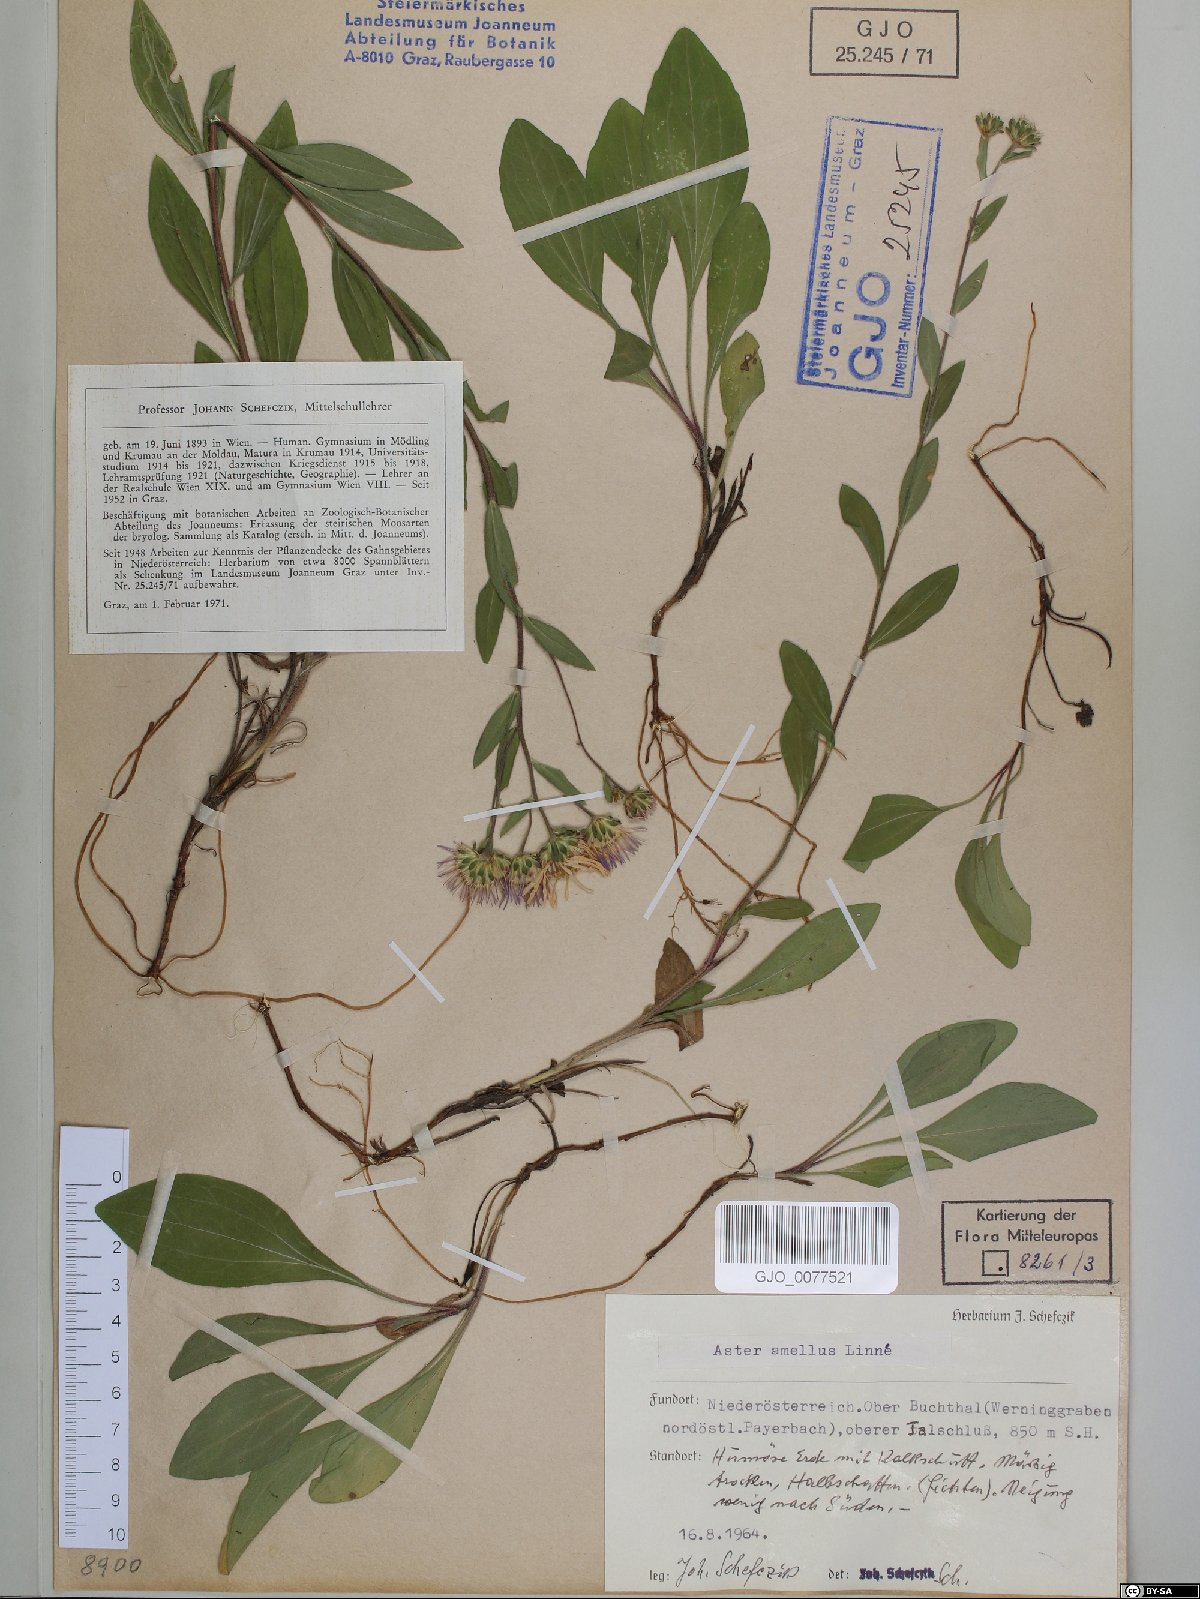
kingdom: Plantae
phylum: Tracheophyta
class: Magnoliopsida
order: Asterales
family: Asteraceae
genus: Aster
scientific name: Aster amellus
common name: European michaelmas daisy
